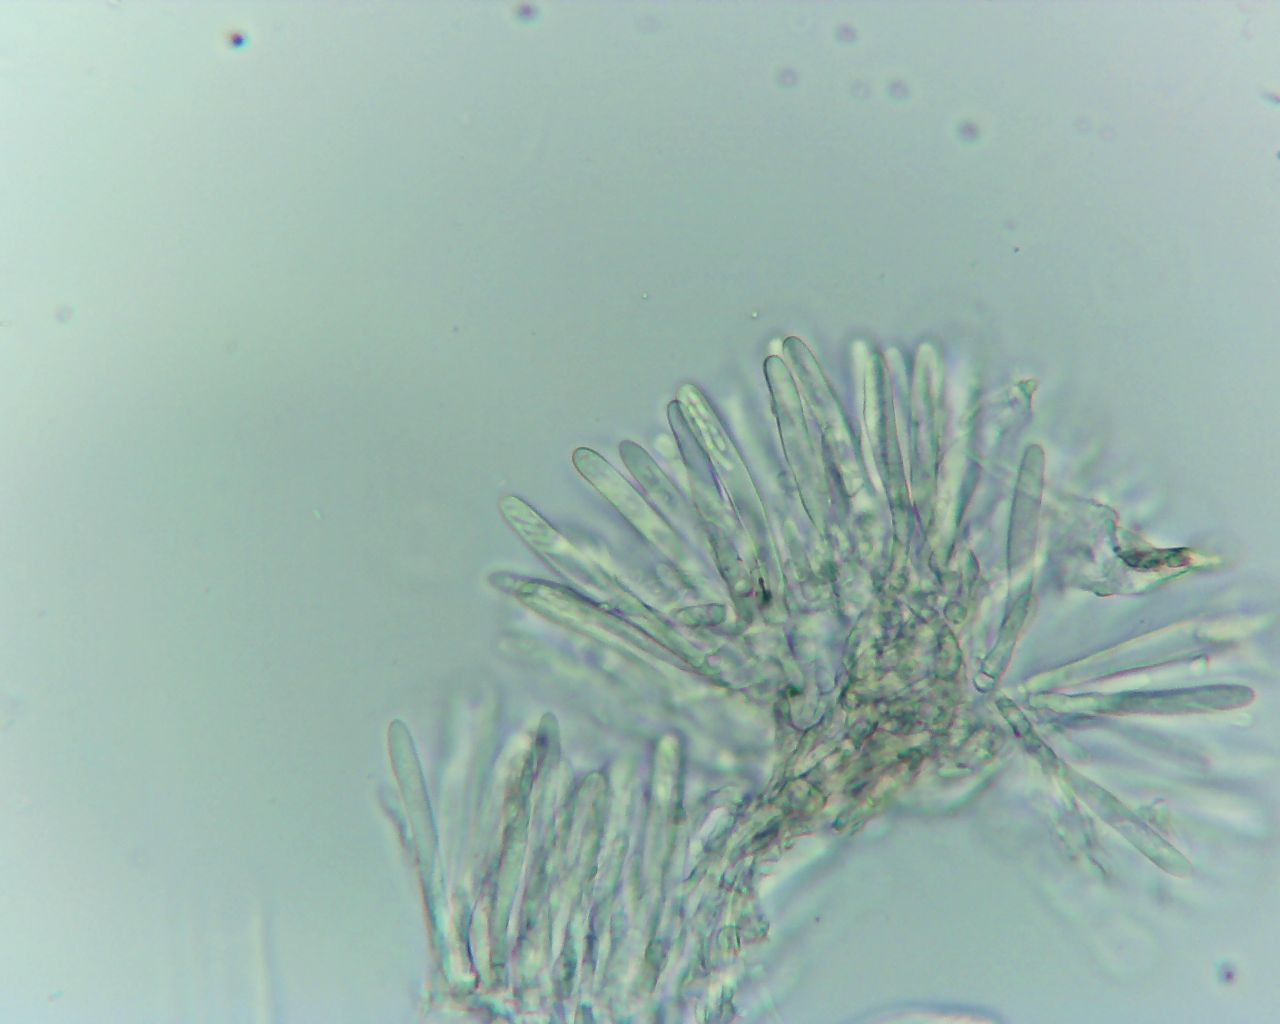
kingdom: Fungi
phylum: Ascomycota
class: Leotiomycetes
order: Helotiales
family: Pezizellaceae
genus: Calycina
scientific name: Calycina vulgaris
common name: pølsesporet gulskive
